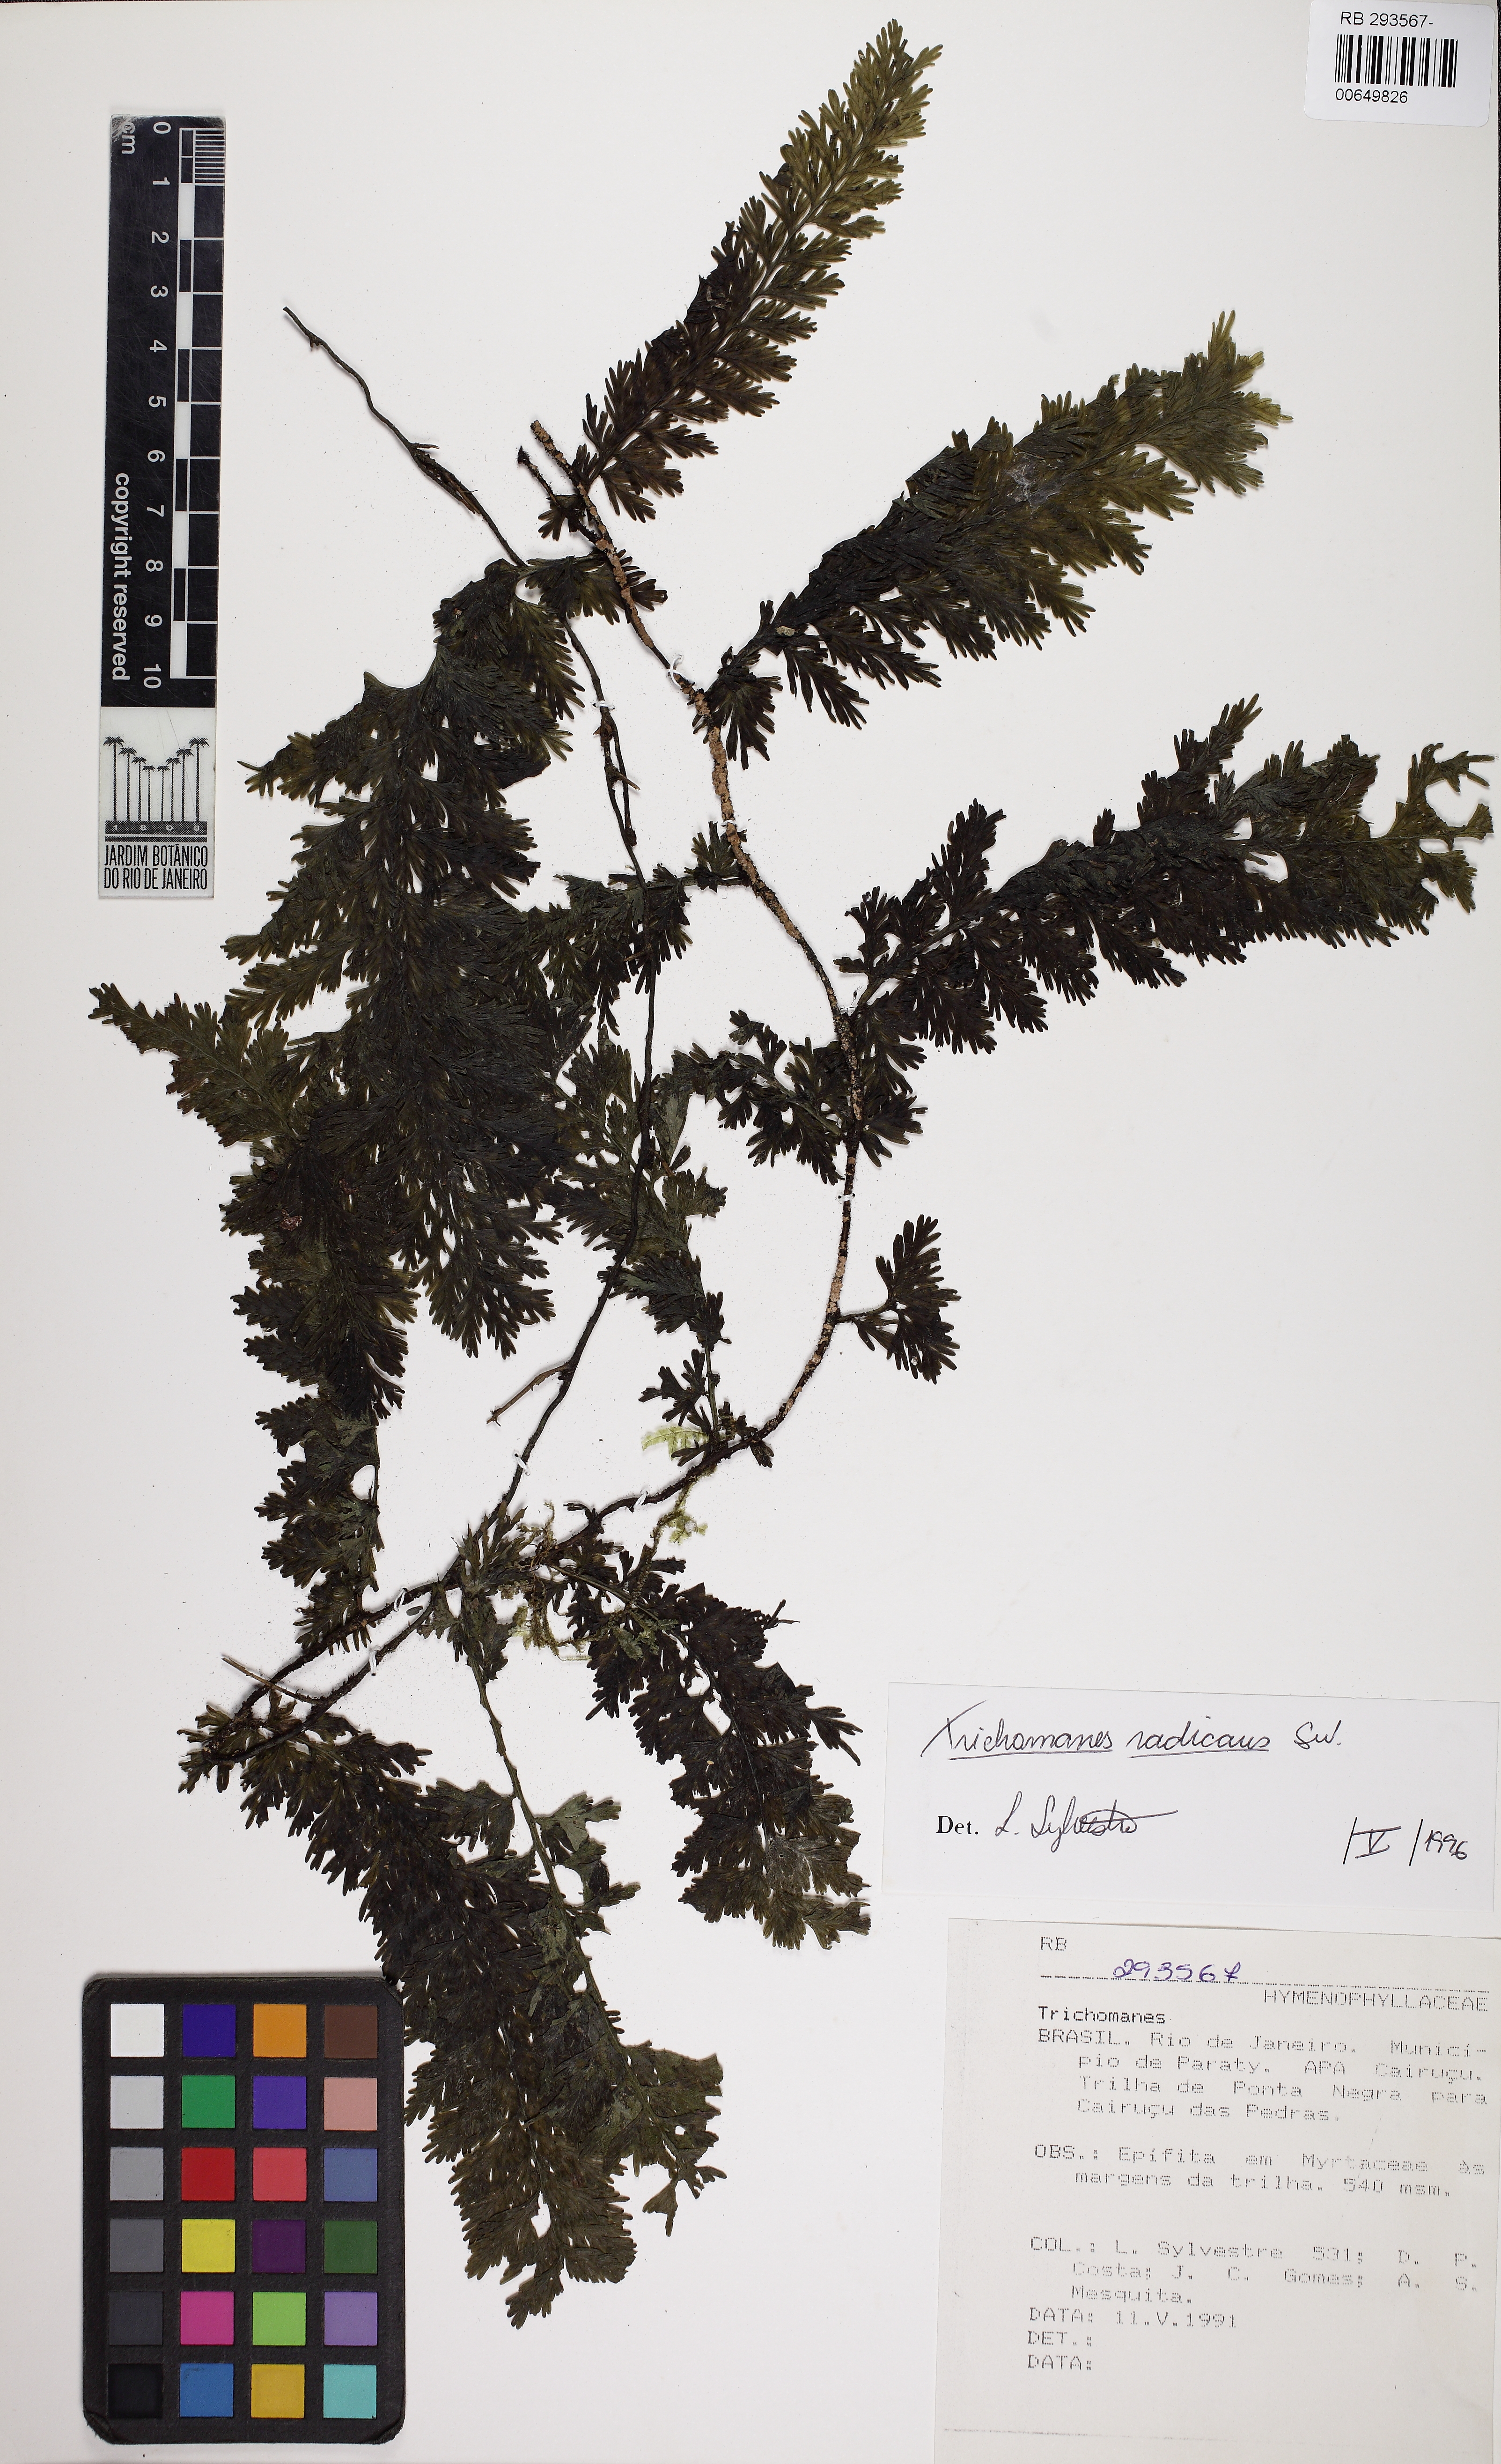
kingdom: Plantae
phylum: Tracheophyta
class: Polypodiopsida
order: Hymenophyllales
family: Hymenophyllaceae
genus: Vandenboschia
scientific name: Vandenboschia radicans
